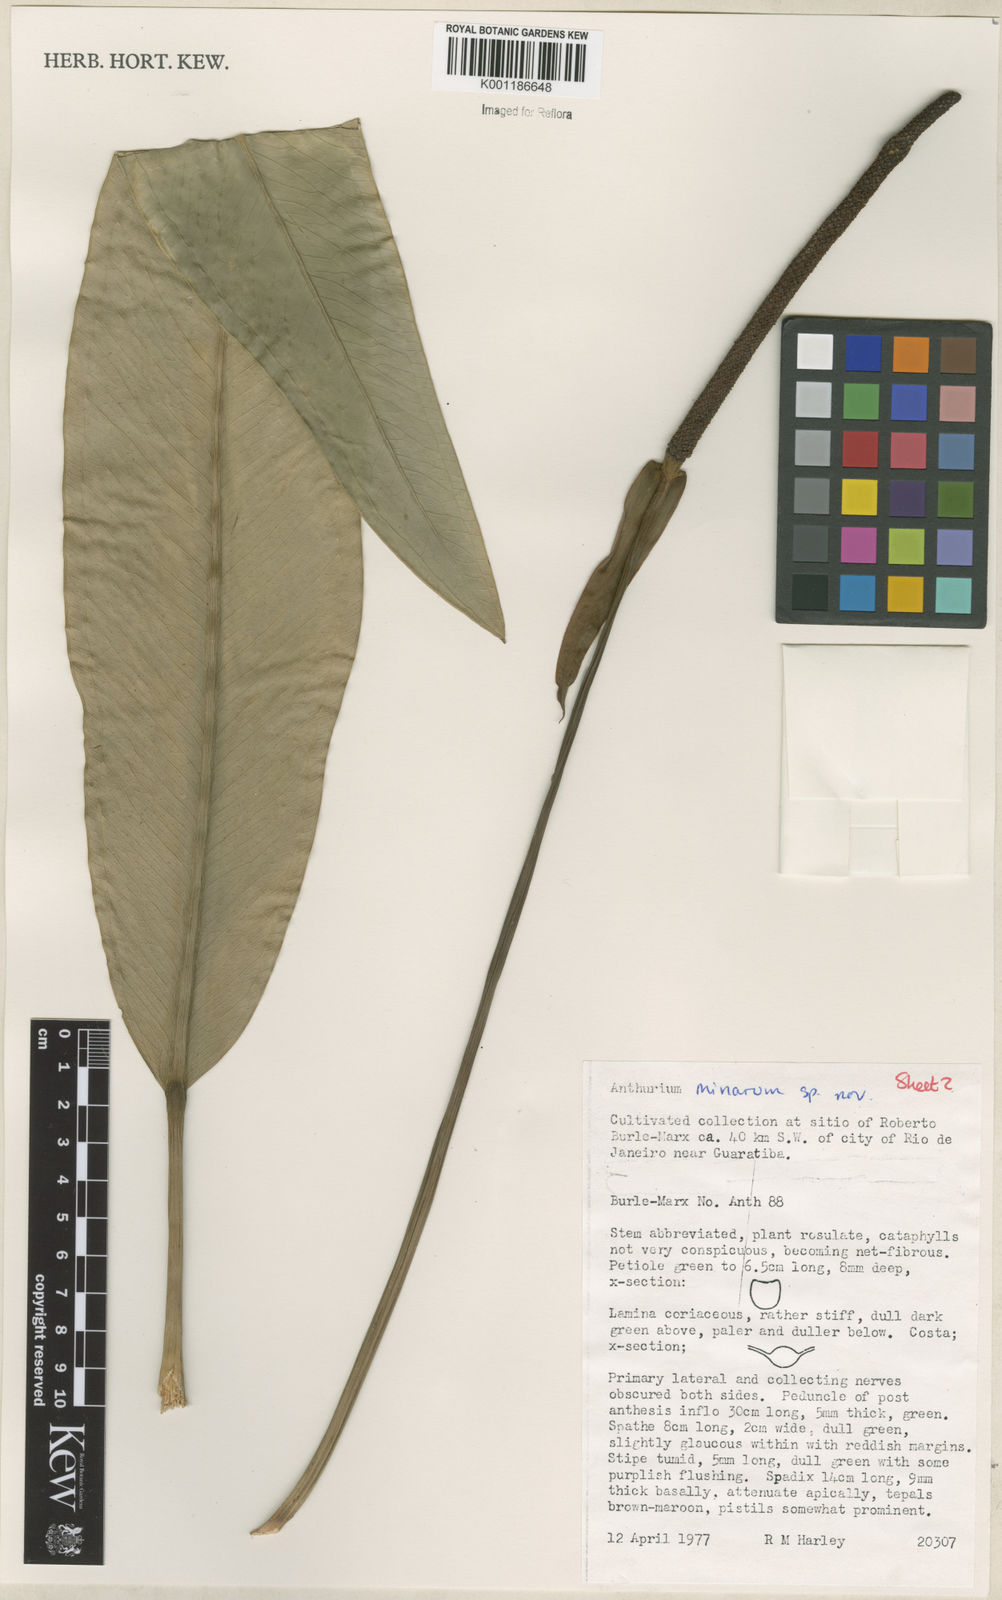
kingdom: Plantae
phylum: Tracheophyta
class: Liliopsida
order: Alismatales
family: Araceae
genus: Anthurium
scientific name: Anthurium minarum
